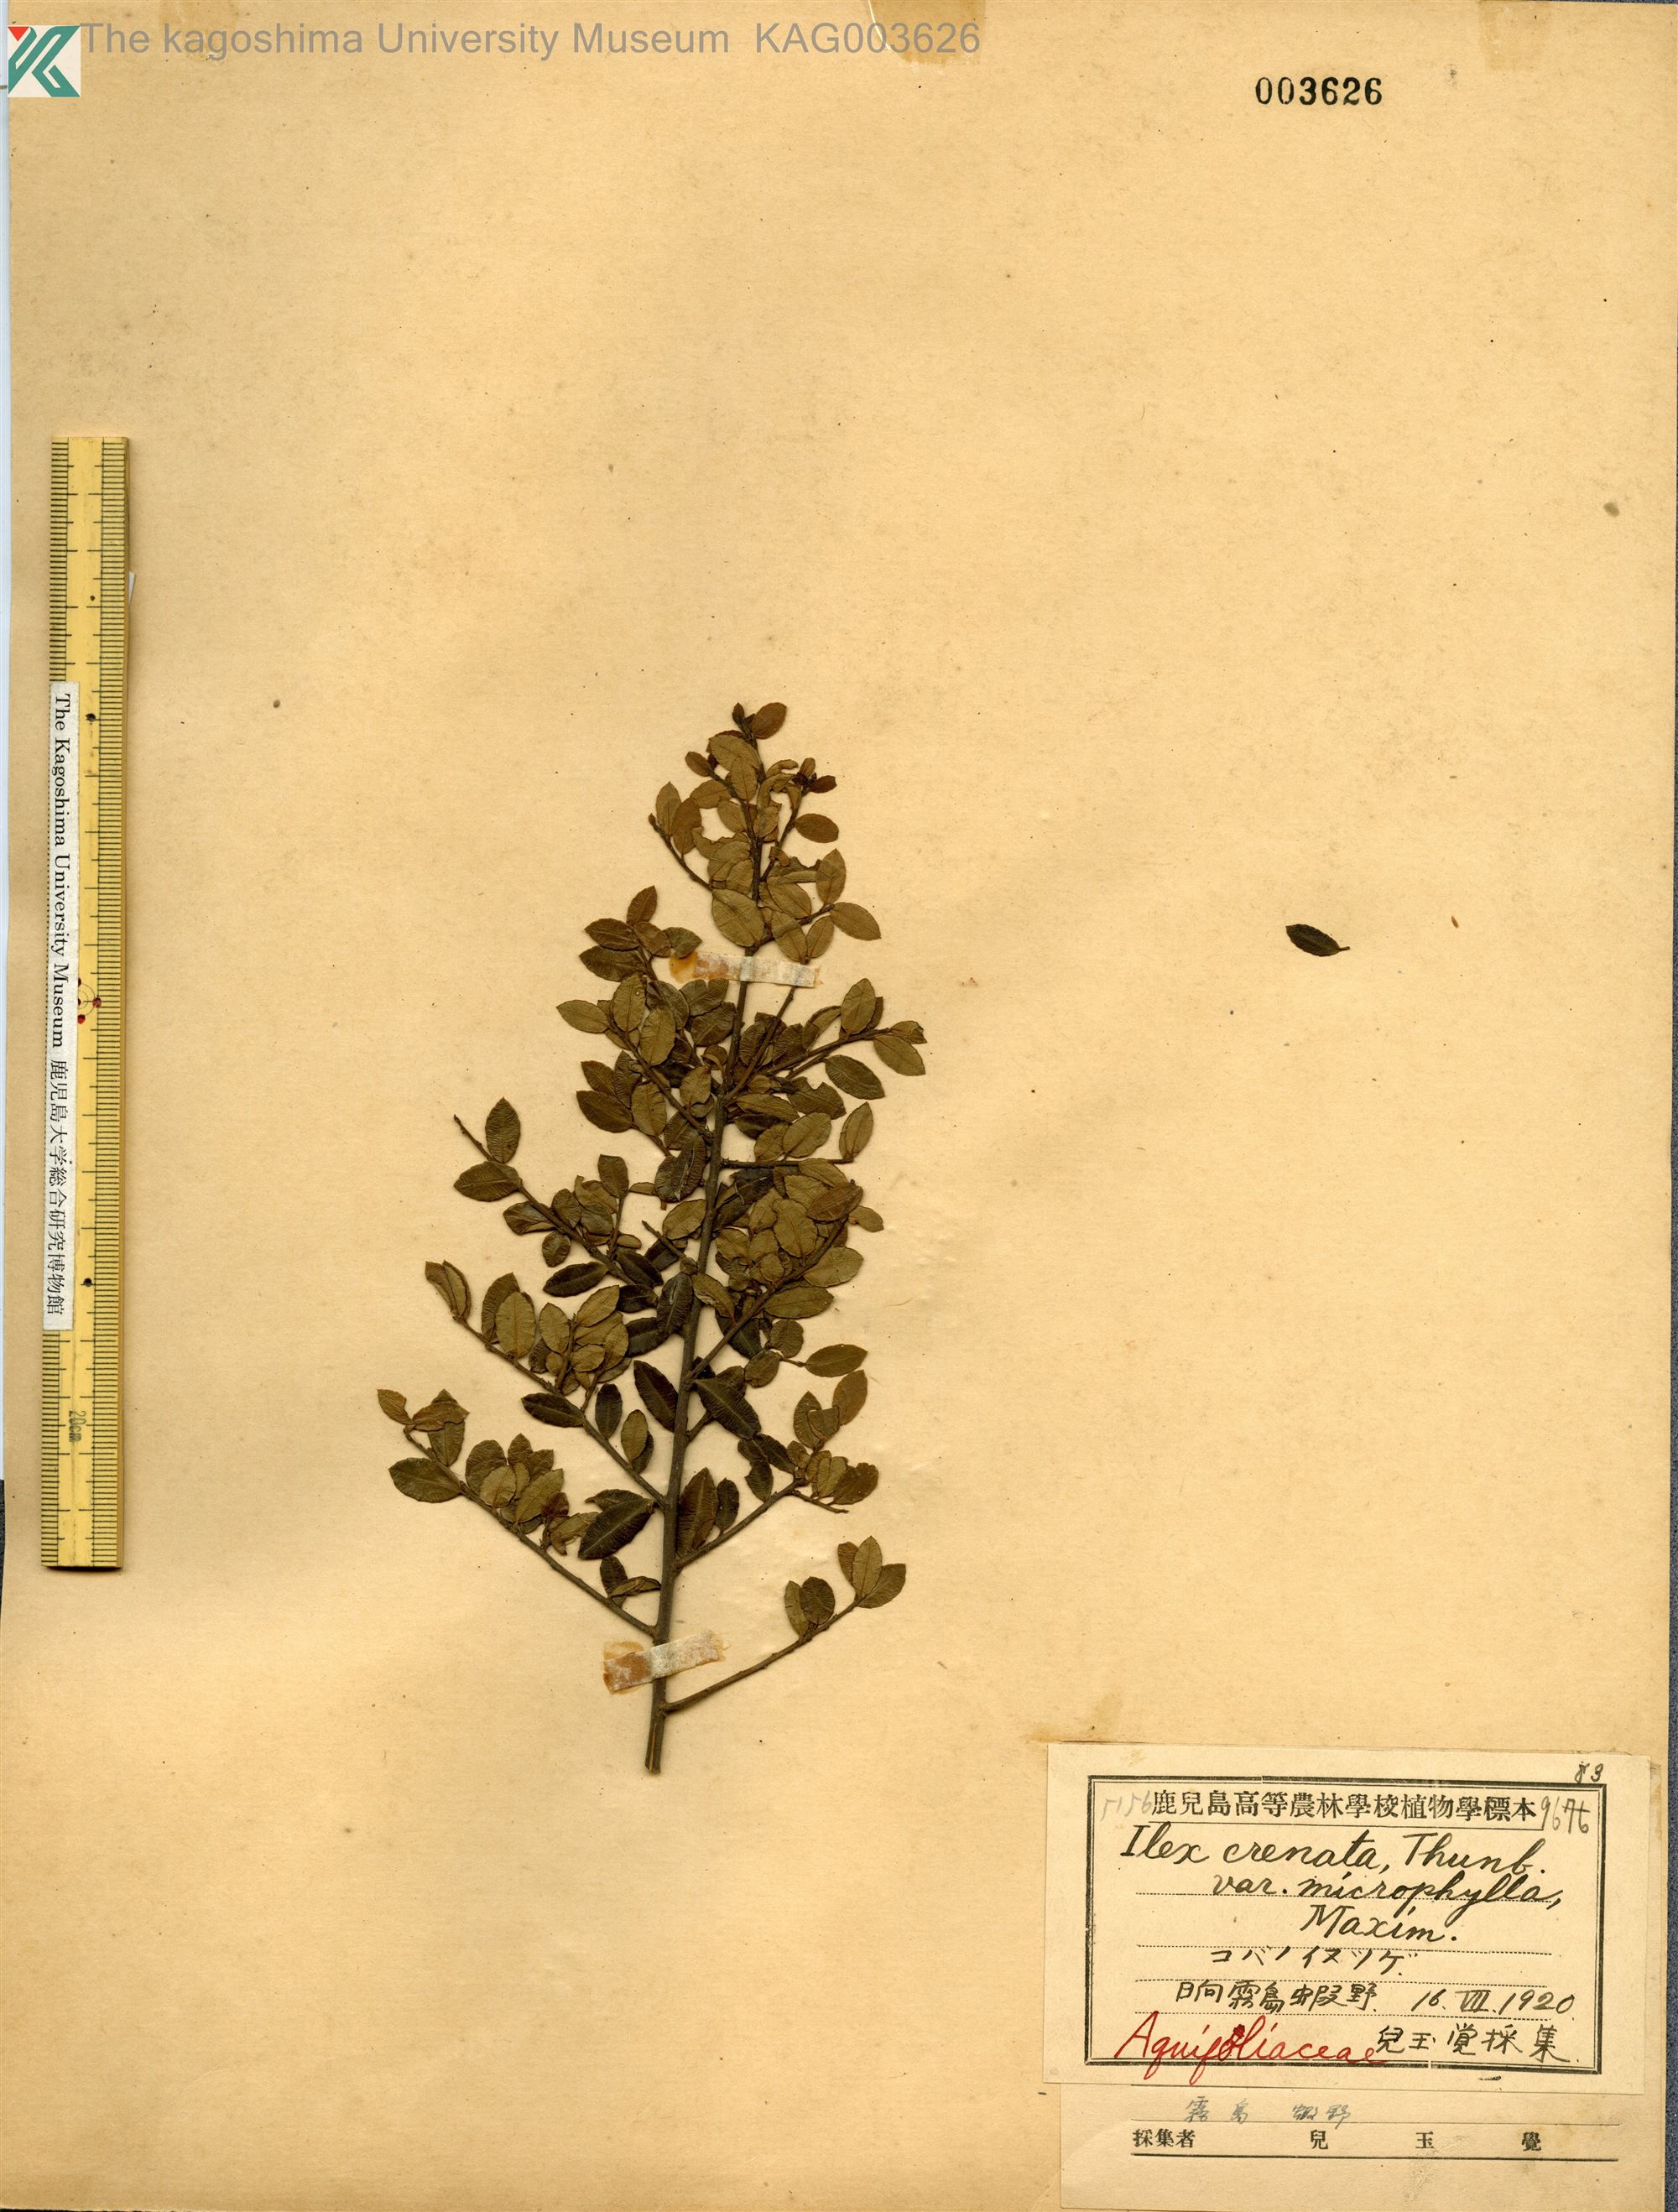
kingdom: Plantae
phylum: Tracheophyta
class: Magnoliopsida
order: Aquifoliales
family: Aquifoliaceae
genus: Ilex
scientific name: Ilex crenata
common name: Japanese holly
